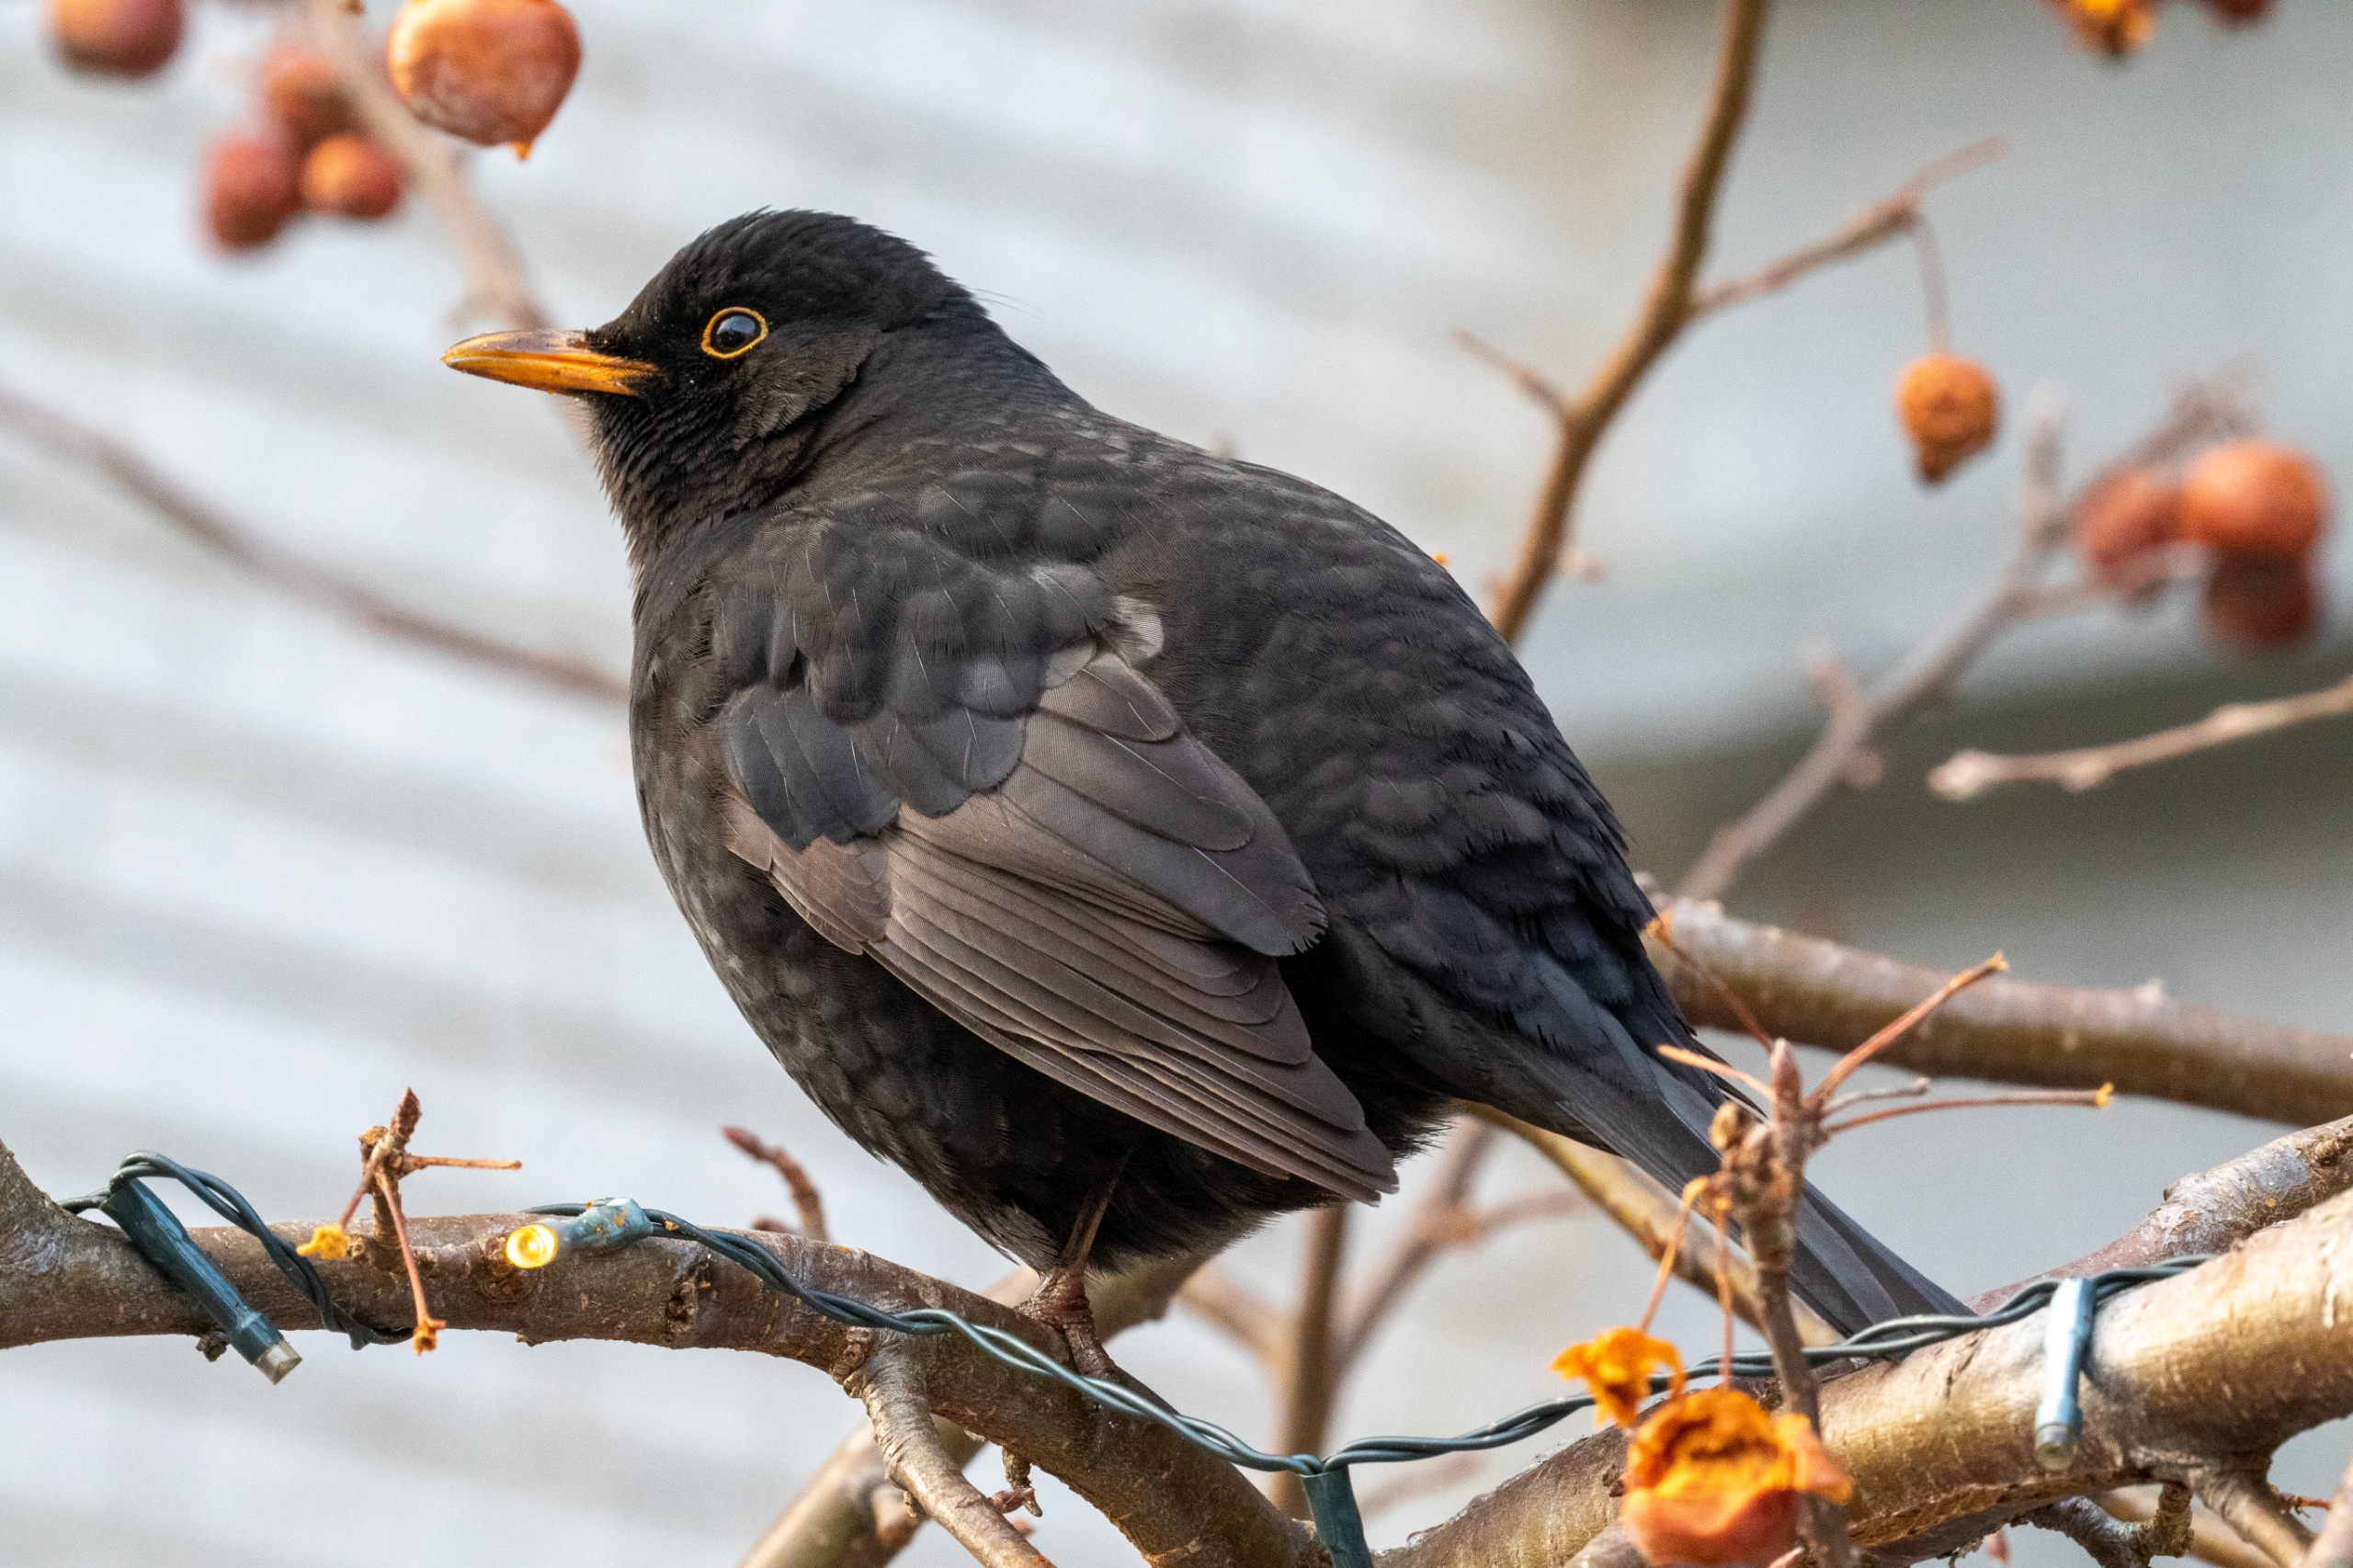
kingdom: Animalia
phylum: Chordata
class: Aves
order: Passeriformes
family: Turdidae
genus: Turdus
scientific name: Turdus merula
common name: Solsort
